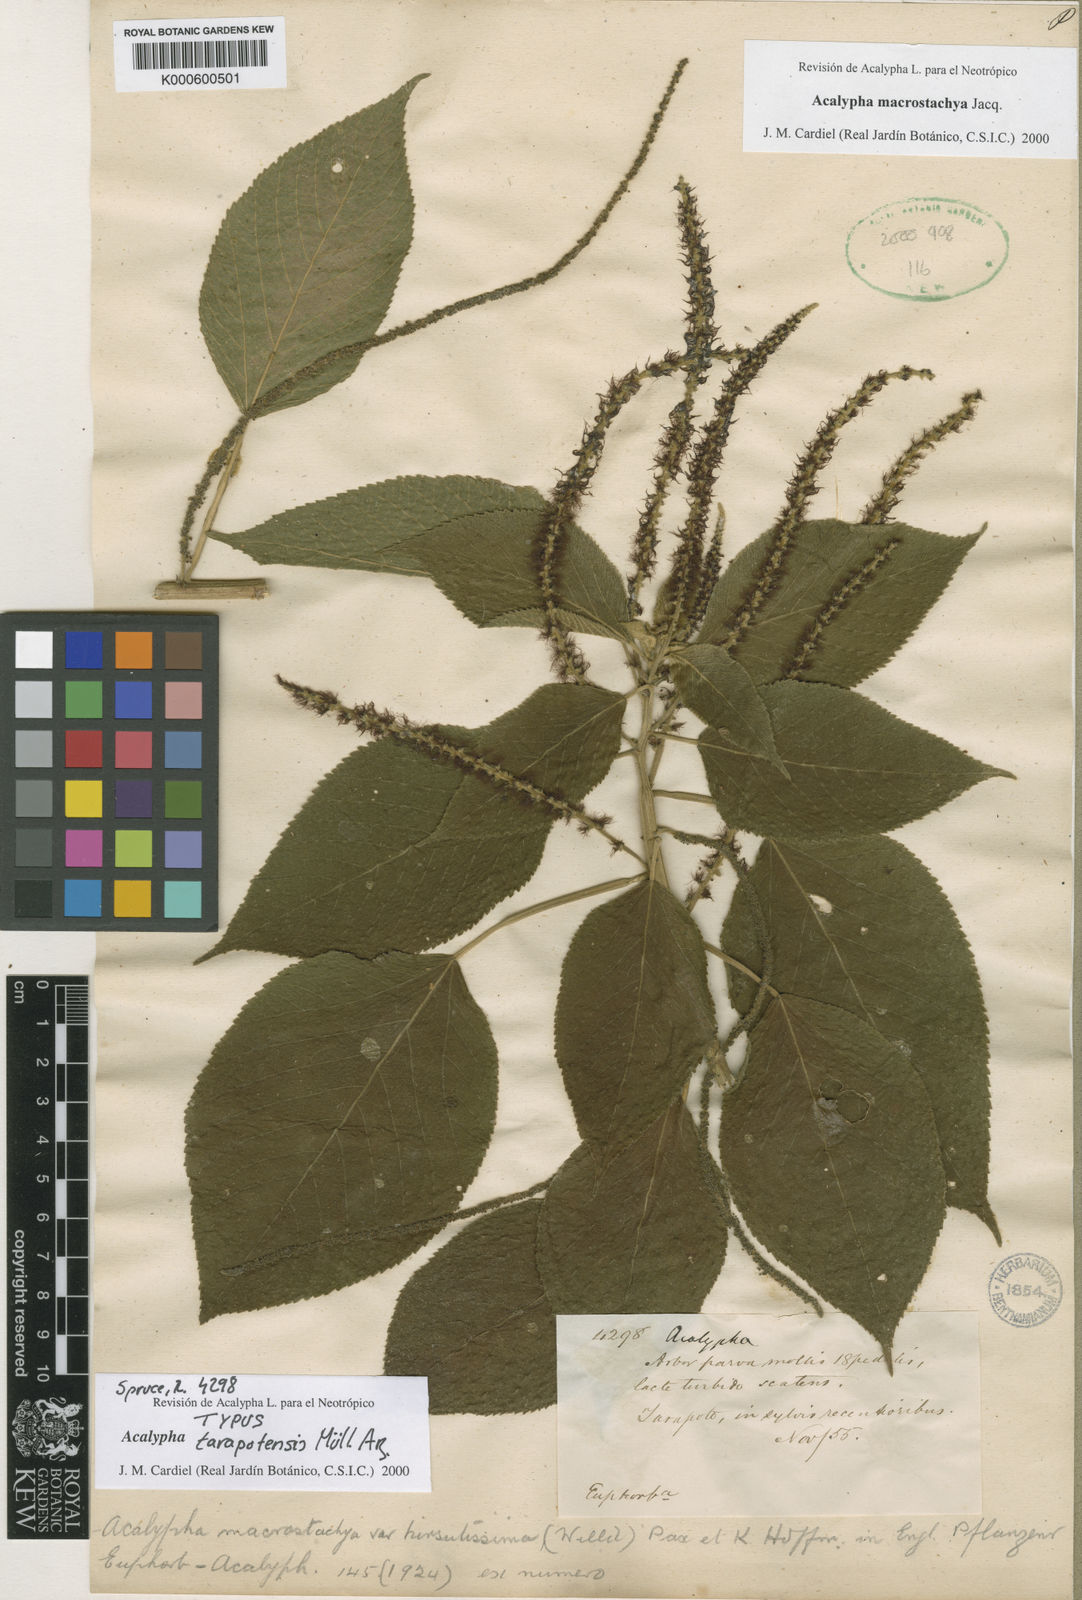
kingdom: Plantae
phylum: Tracheophyta
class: Magnoliopsida
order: Malpighiales
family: Euphorbiaceae
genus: Acalypha
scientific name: Acalypha macrostachya
